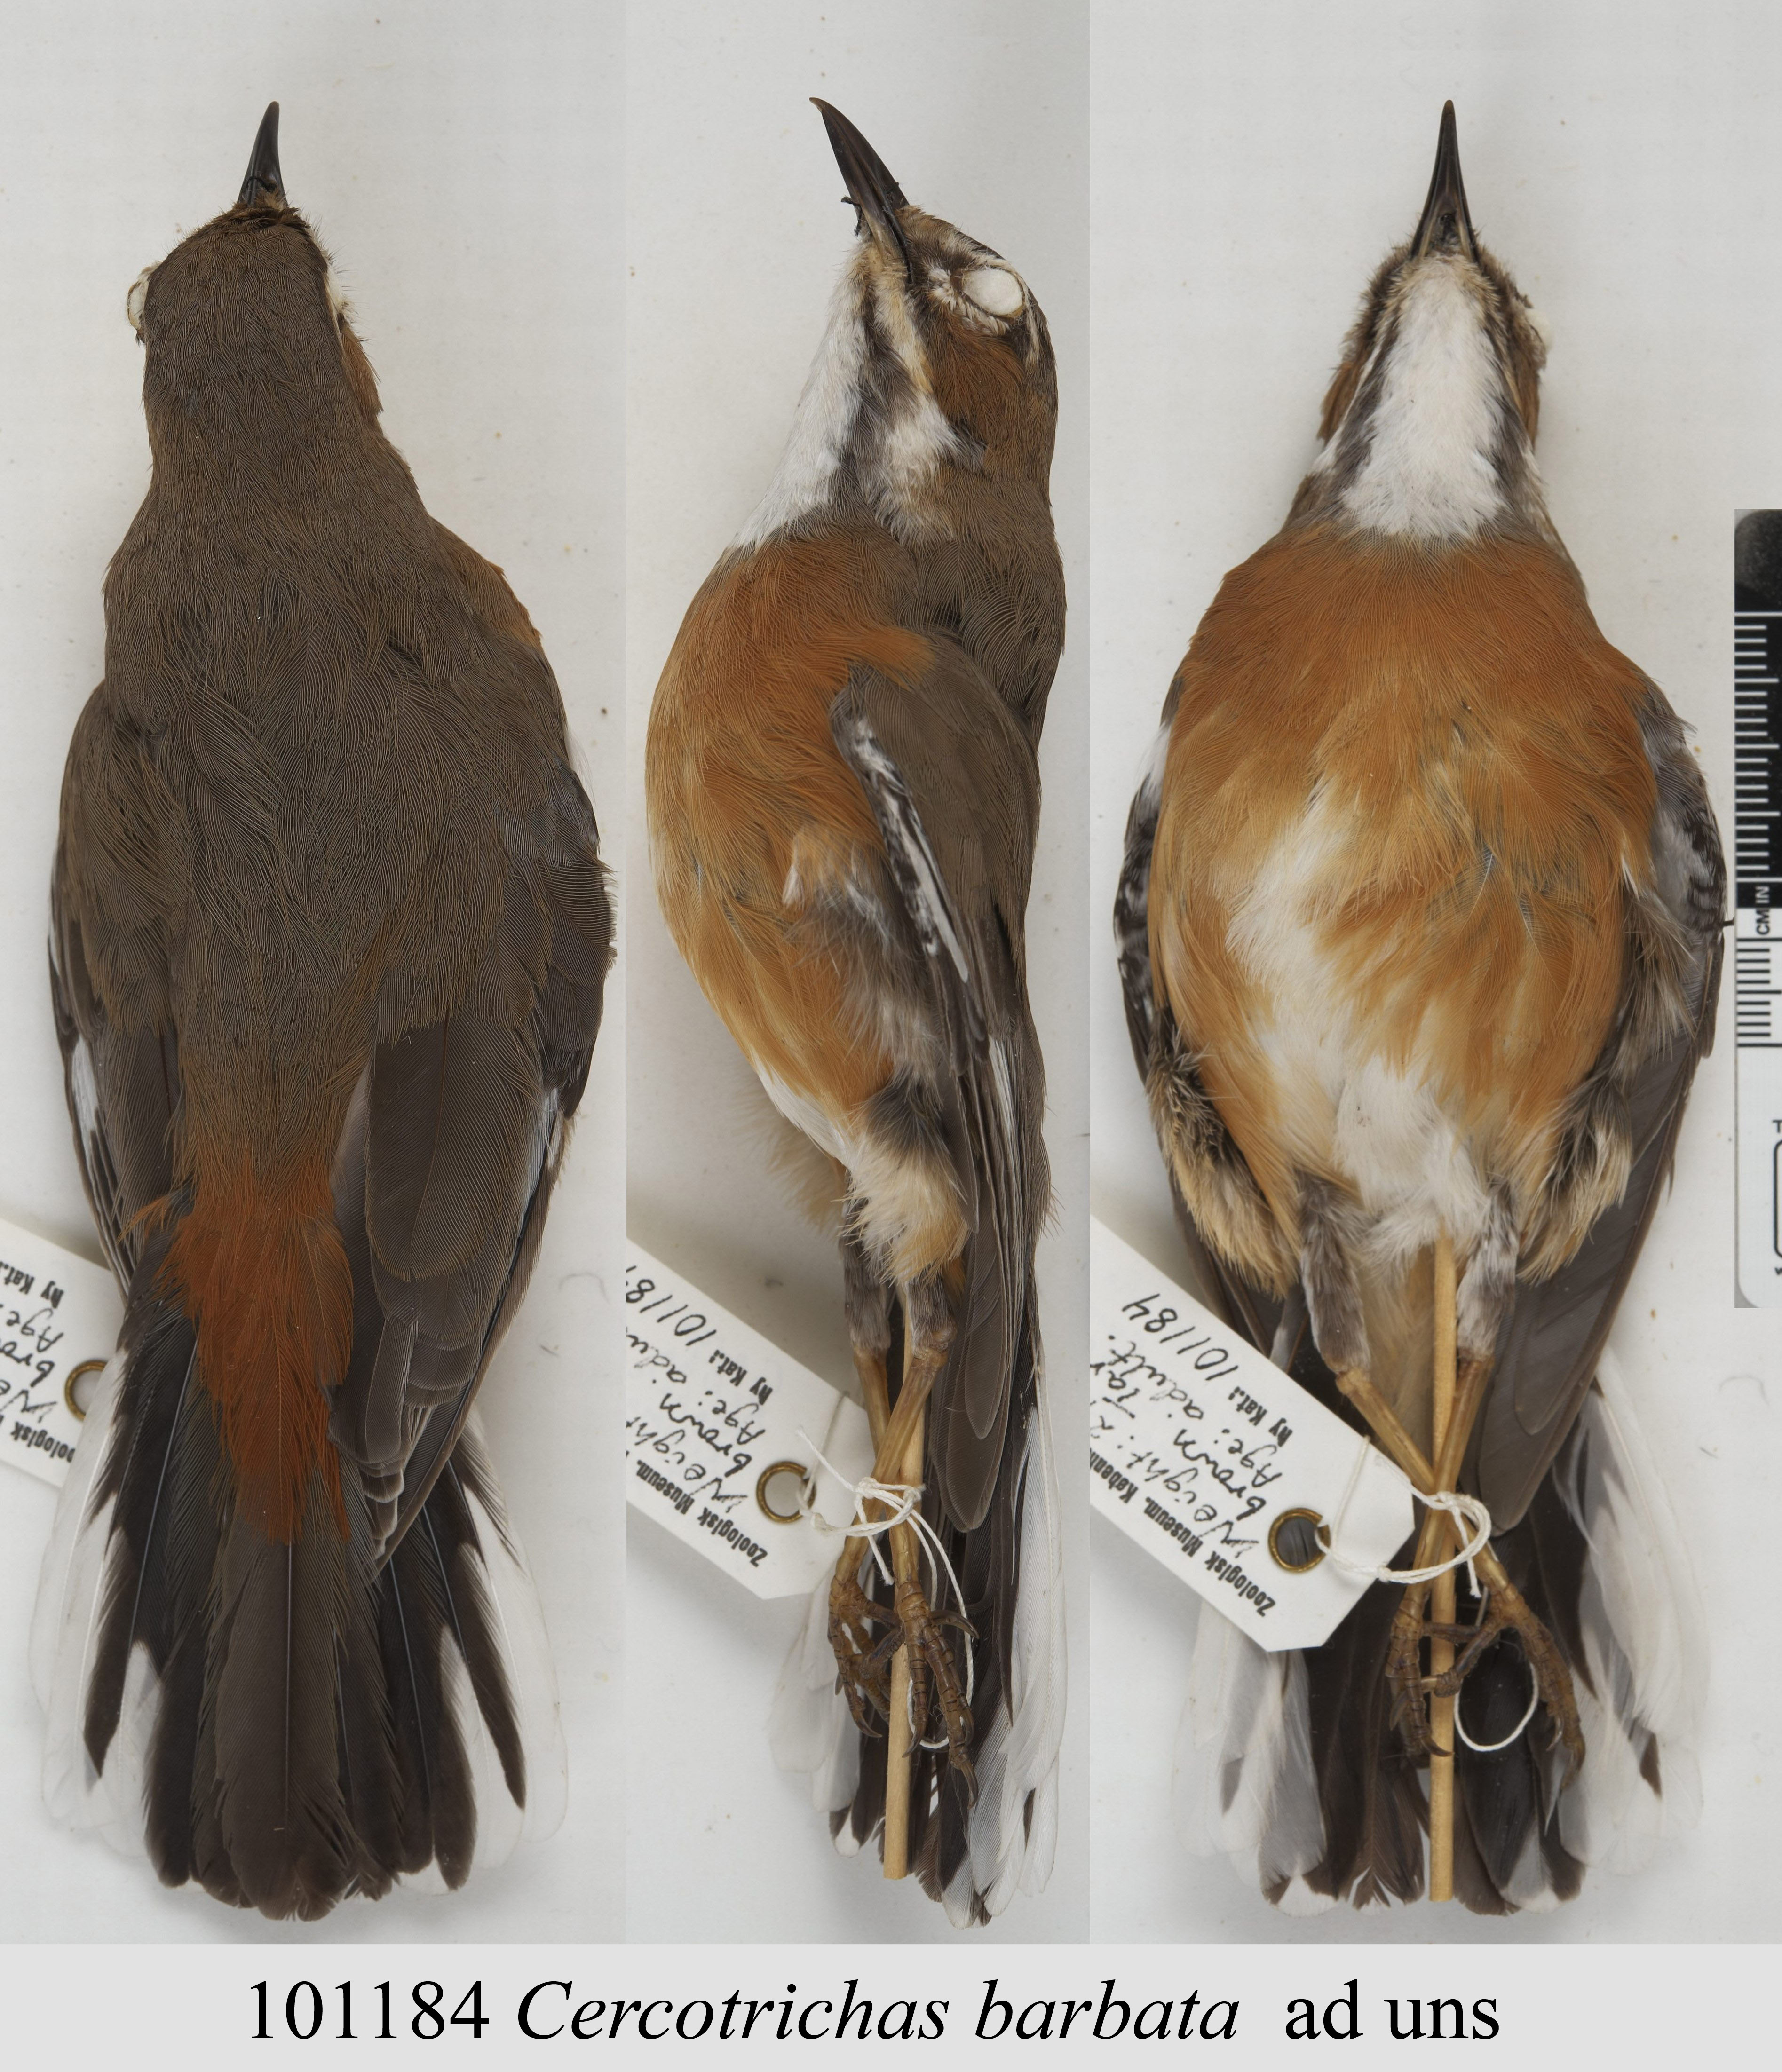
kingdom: Animalia
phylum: Chordata
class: Aves
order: Passeriformes
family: Muscicapidae
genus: Erythropygia
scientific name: Erythropygia barbata
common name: Miombo scrub robin
